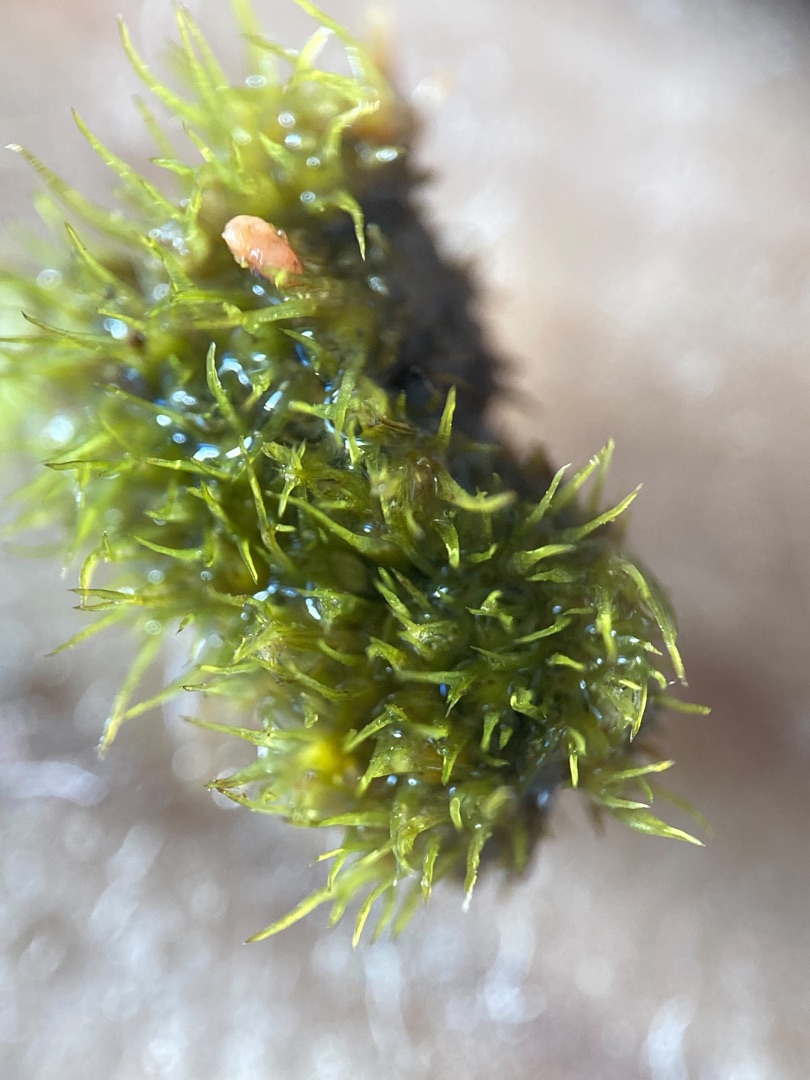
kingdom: Plantae
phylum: Bryophyta
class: Bryopsida
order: Pottiales
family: Pottiaceae
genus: Weissia
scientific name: Weissia longifolia
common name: Kruset lidenmos
